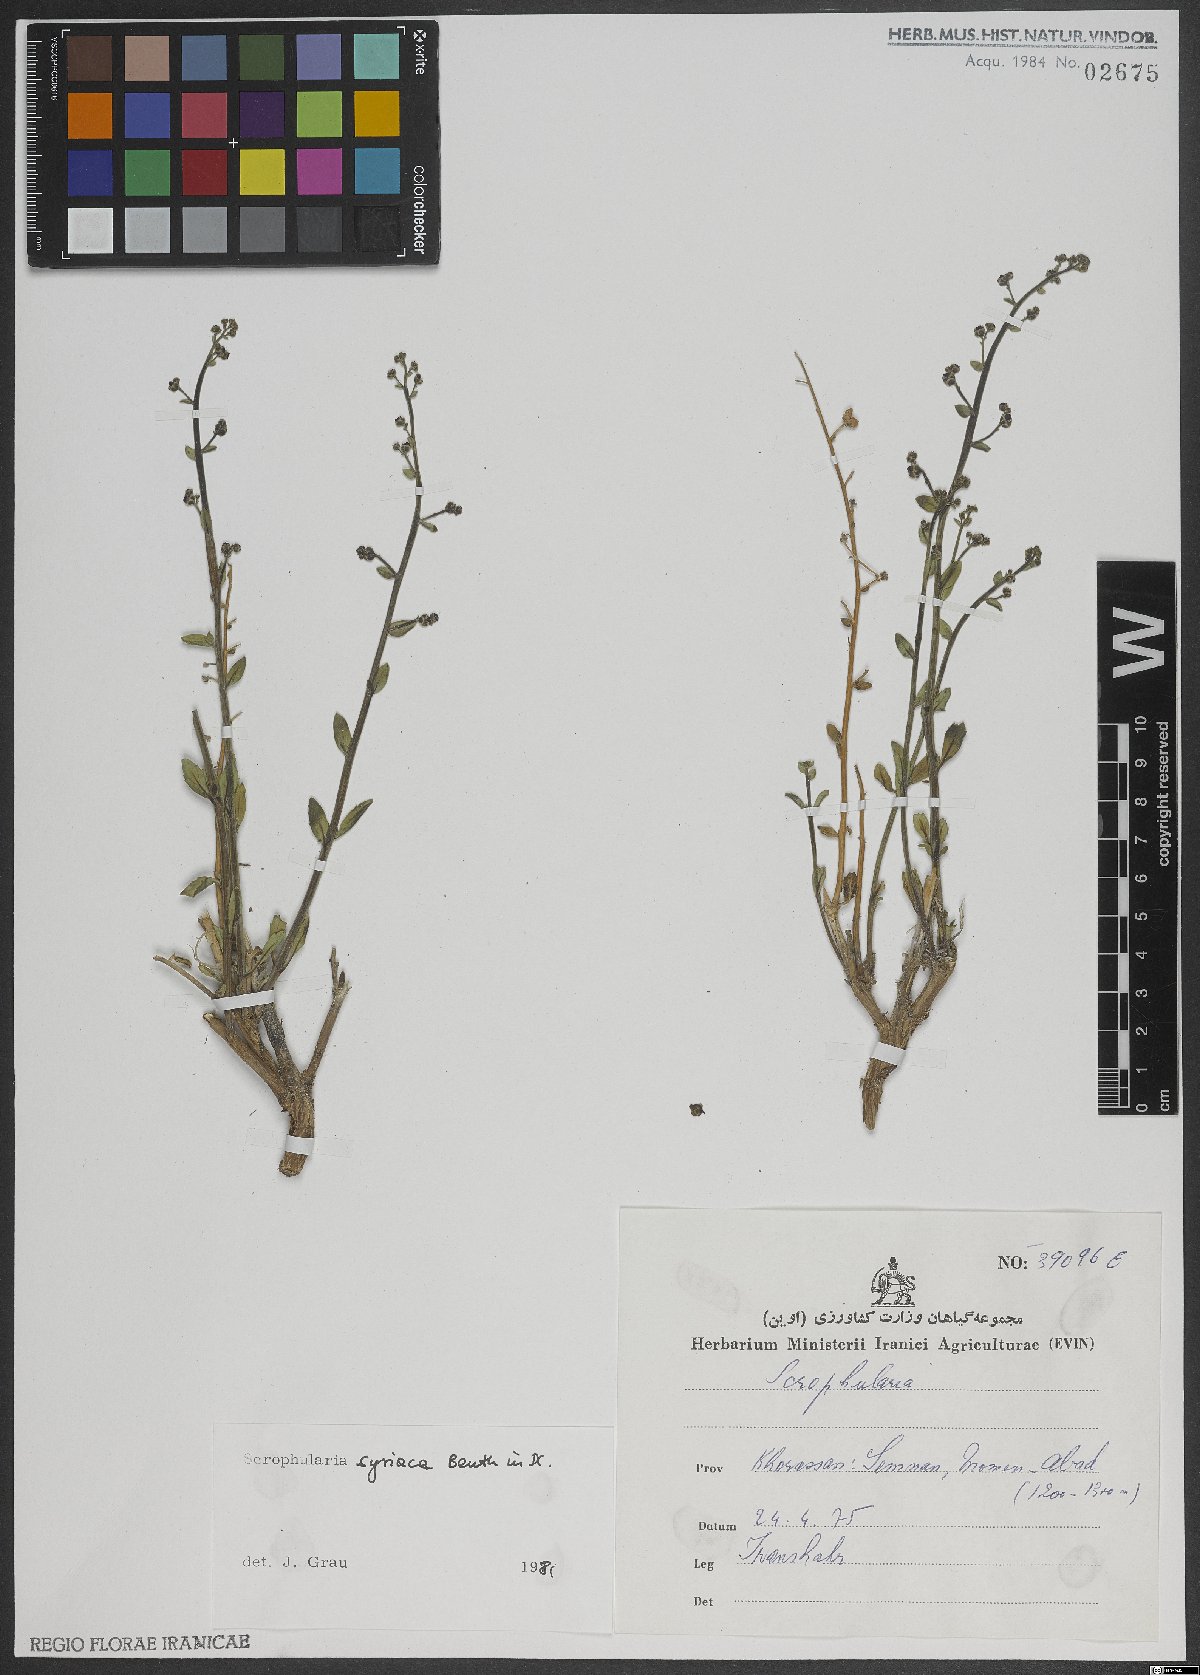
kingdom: Plantae
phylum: Tracheophyta
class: Magnoliopsida
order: Lamiales
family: Scrophulariaceae
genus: Scrophularia
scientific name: Scrophularia hypericifolia
